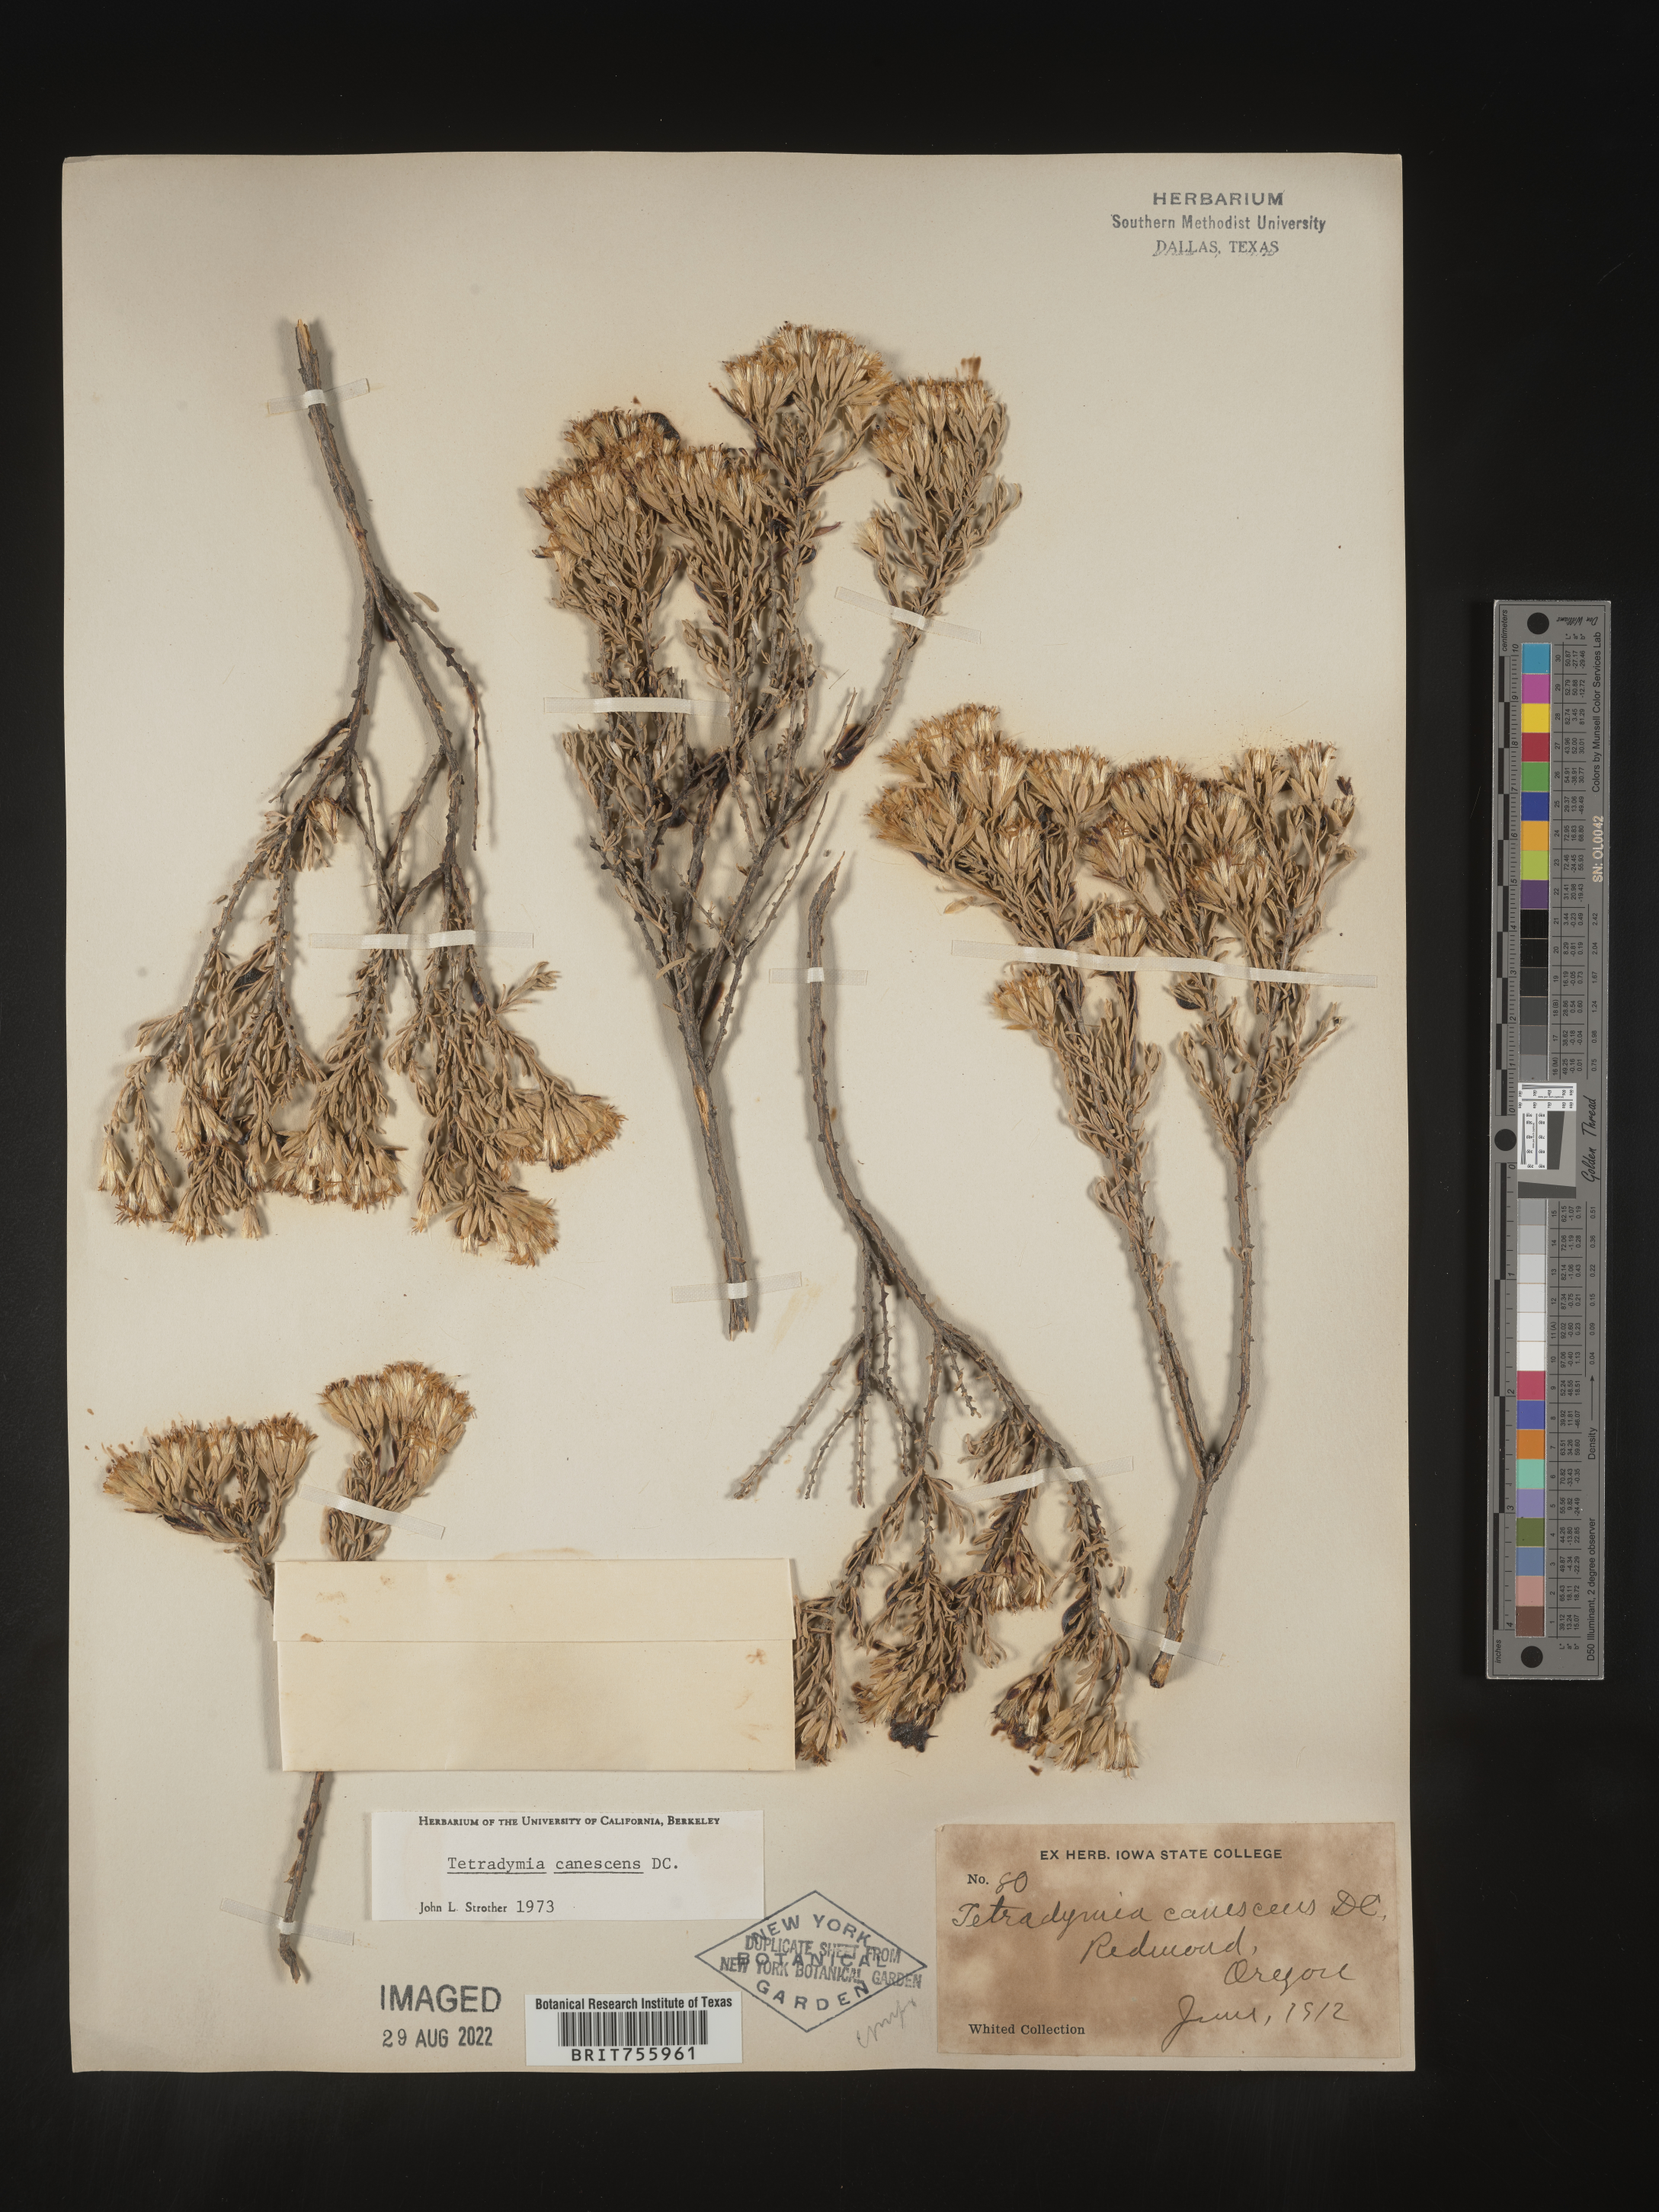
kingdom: Plantae
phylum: Tracheophyta
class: Magnoliopsida
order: Asterales
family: Asteraceae
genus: Tetradymia
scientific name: Tetradymia canescens
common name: Spineless horsebrush
